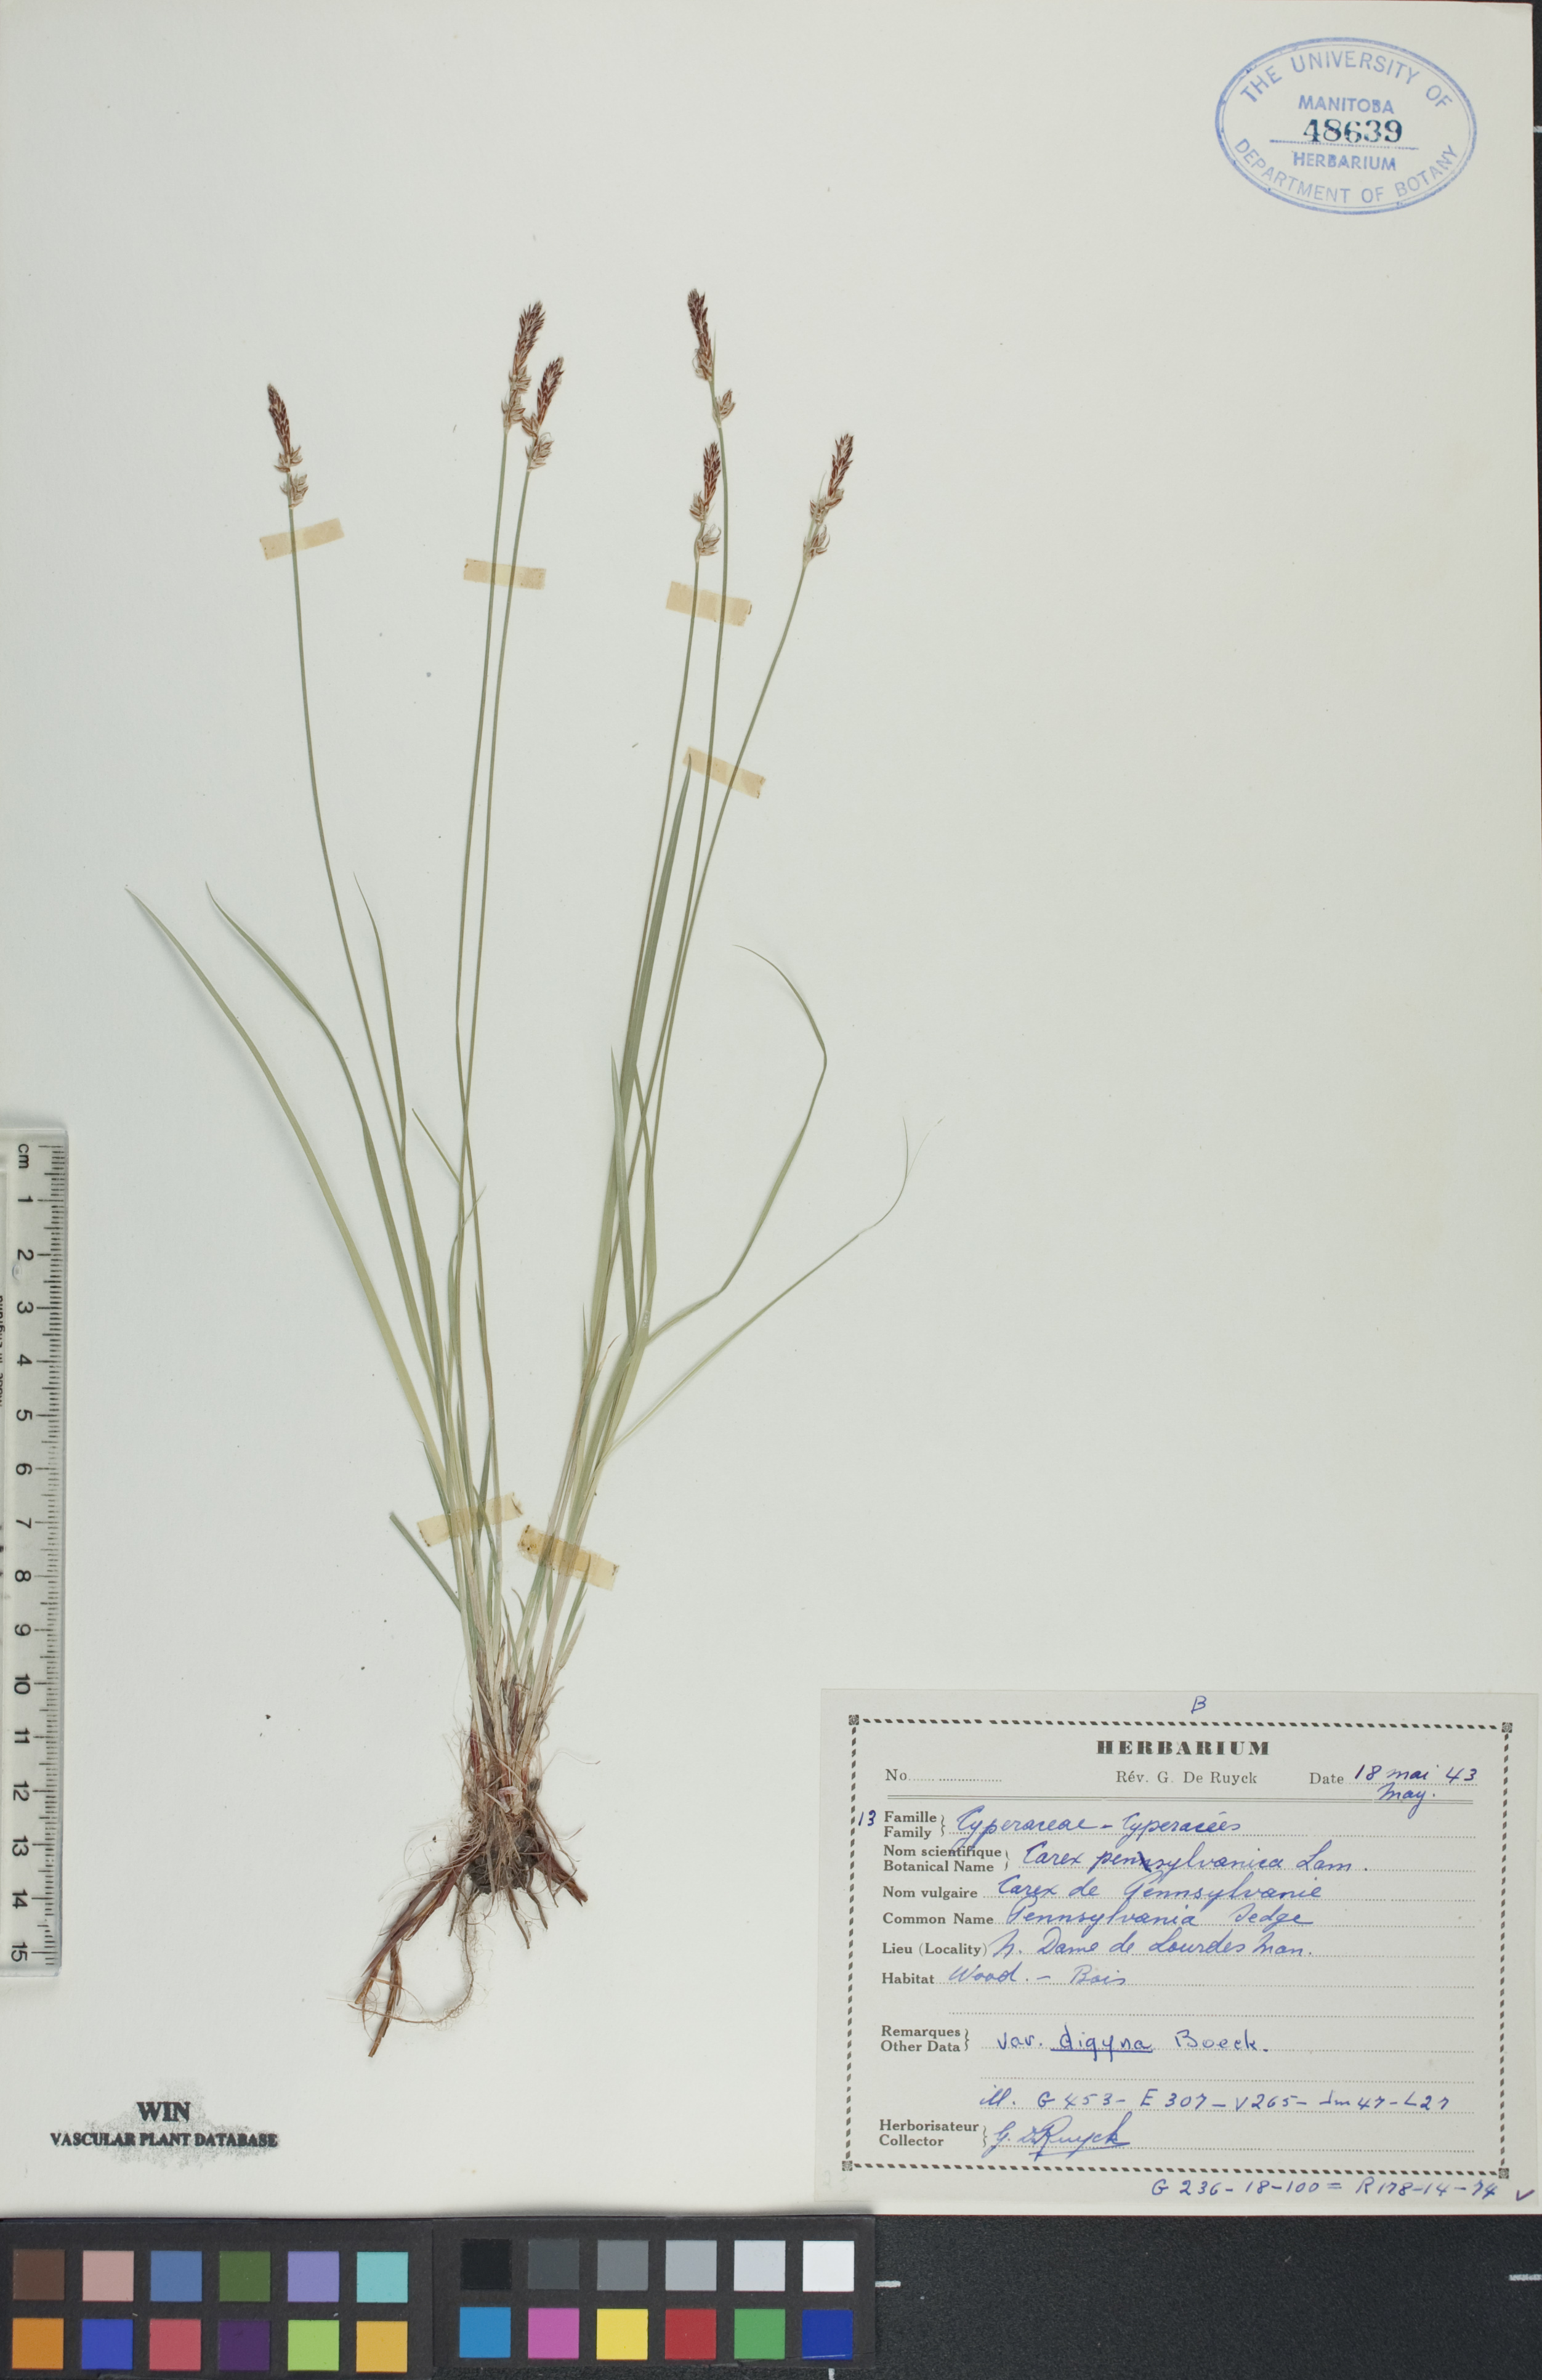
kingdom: Plantae
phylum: Tracheophyta
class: Liliopsida
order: Poales
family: Cyperaceae
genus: Carex
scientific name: Carex pensylvanica
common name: Common oak sedge
